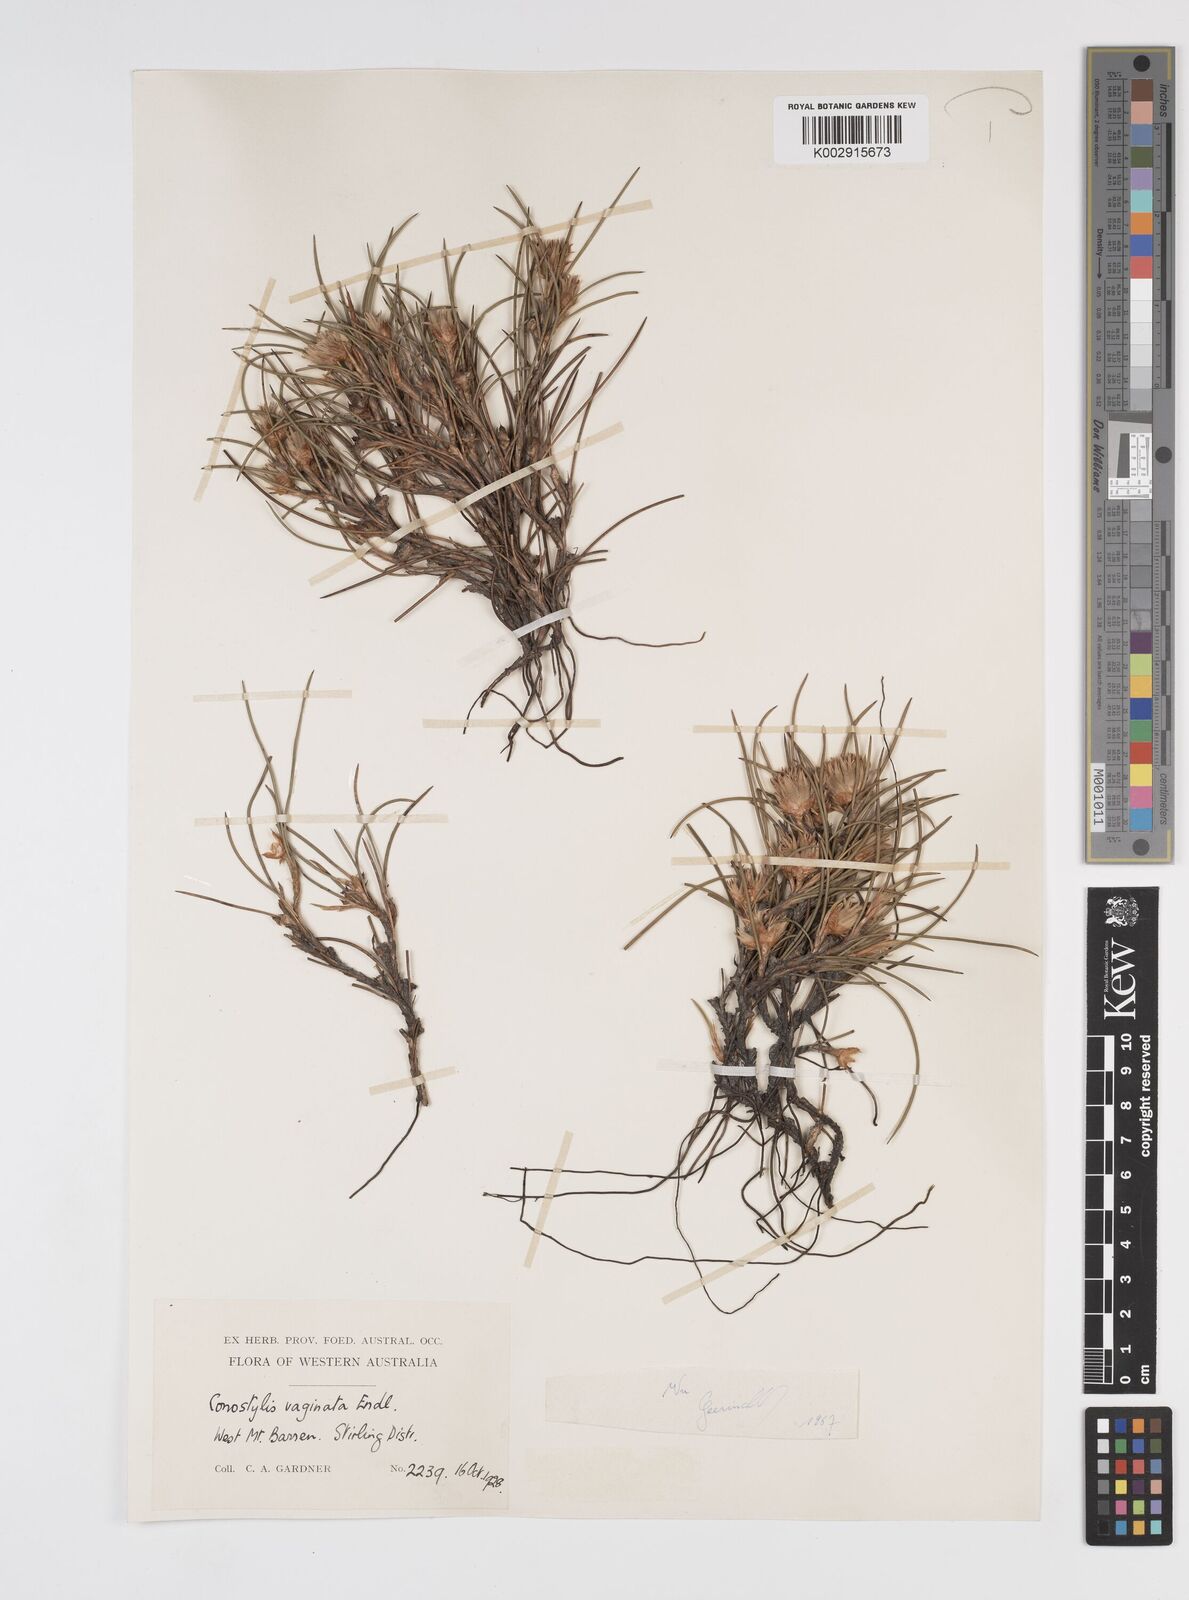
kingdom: Plantae
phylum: Tracheophyta
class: Liliopsida
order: Commelinales
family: Haemodoraceae
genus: Conostylis
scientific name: Conostylis vaginata
